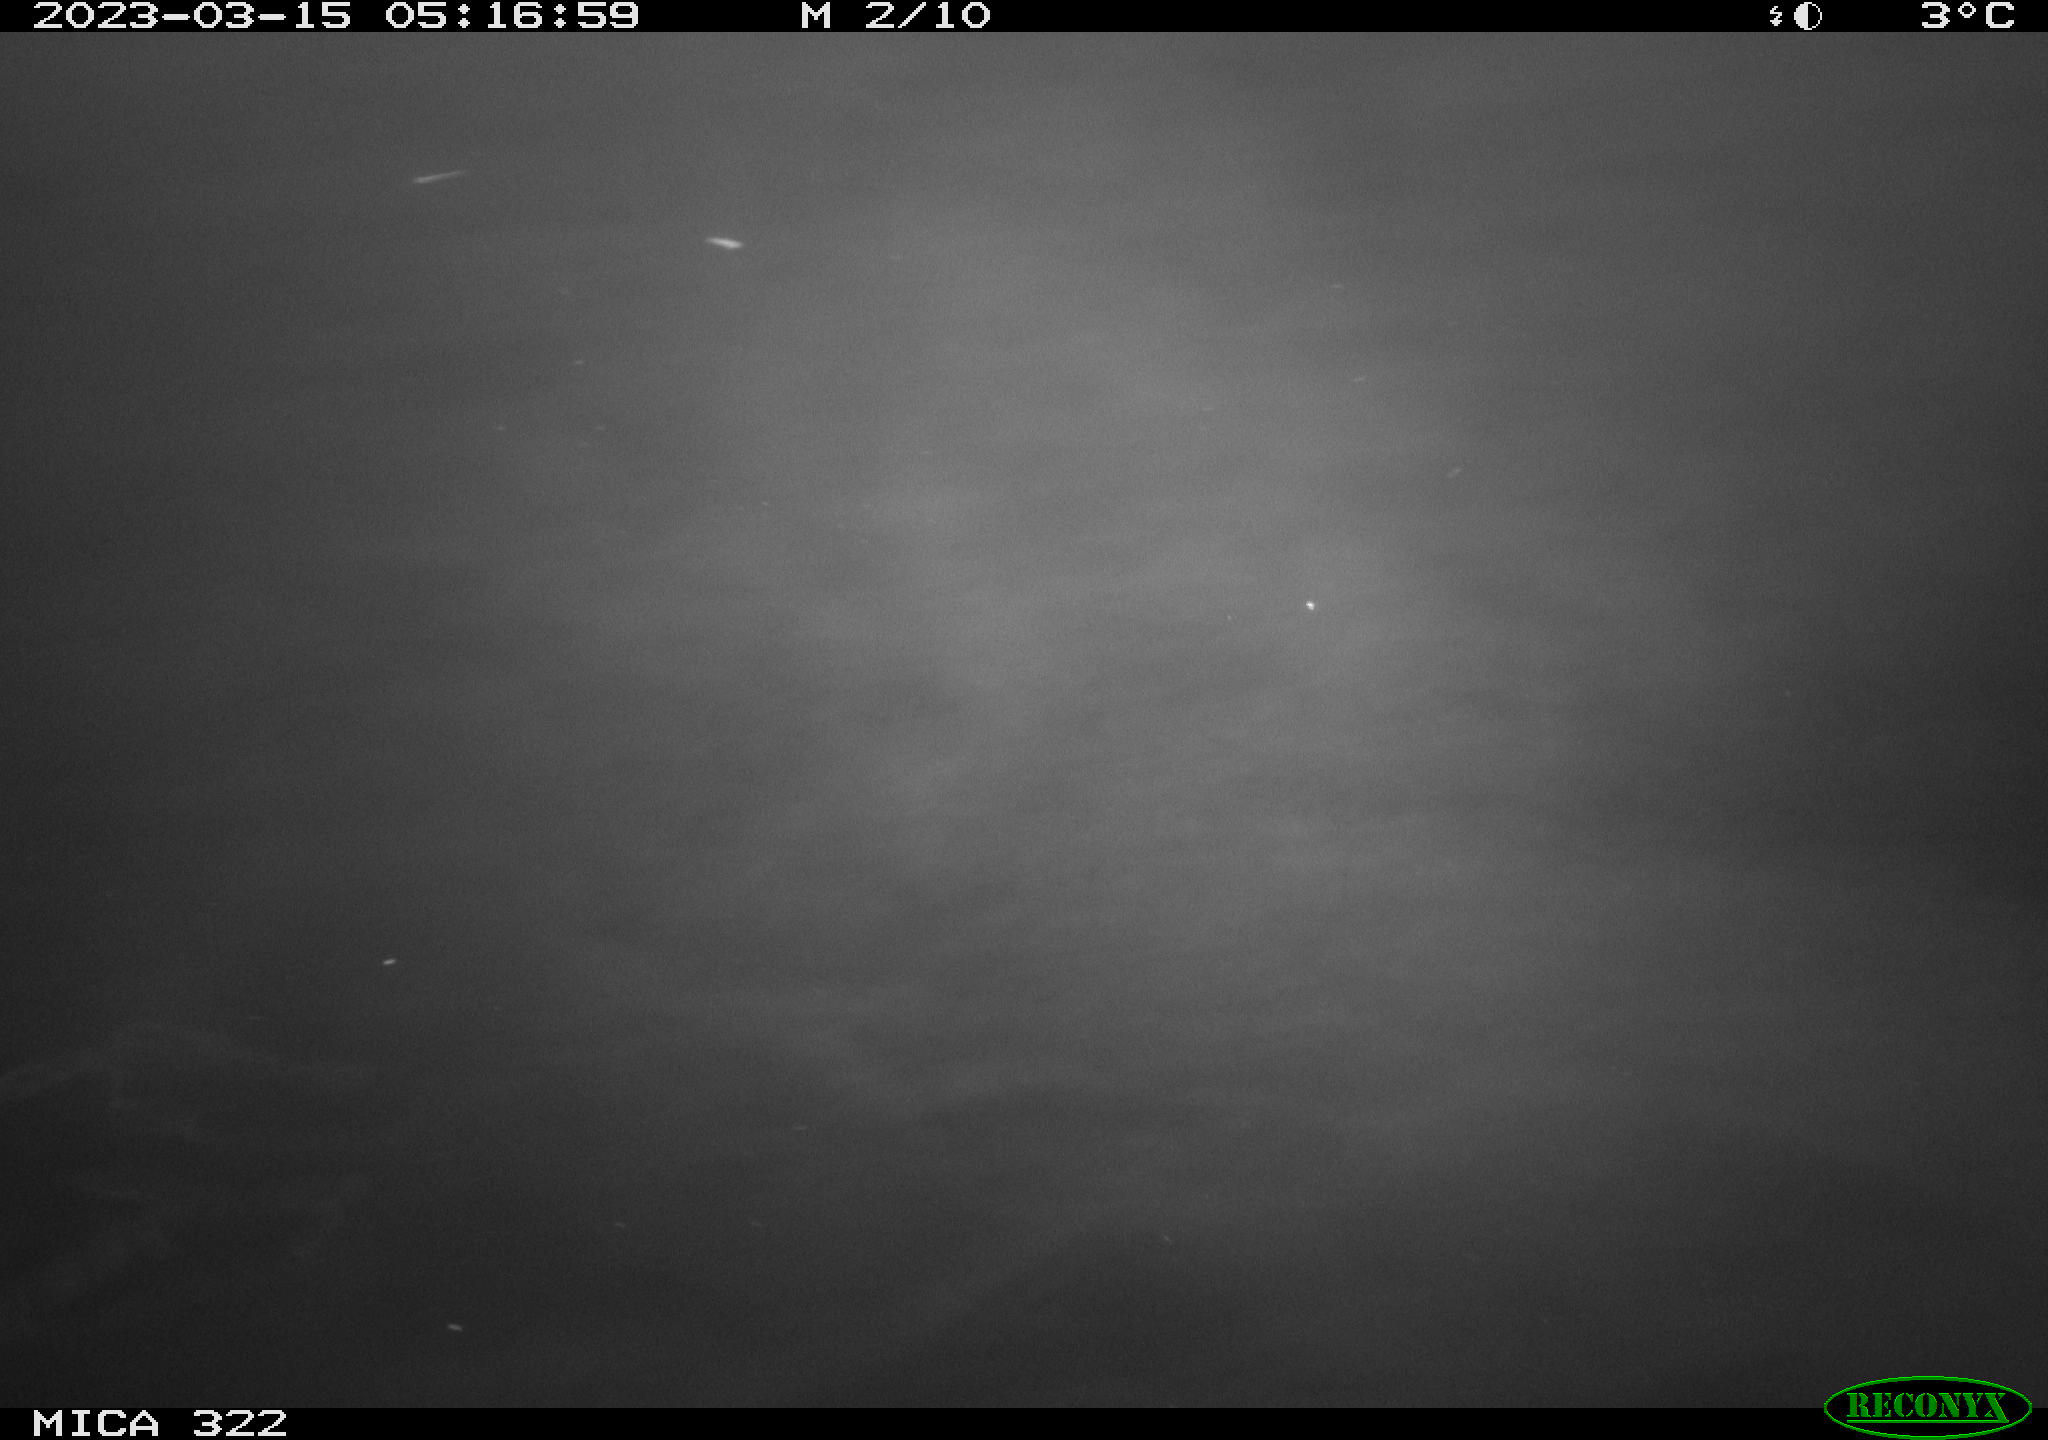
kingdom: Animalia
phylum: Chordata
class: Aves
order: Anseriformes
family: Anatidae
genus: Anas
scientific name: Anas
